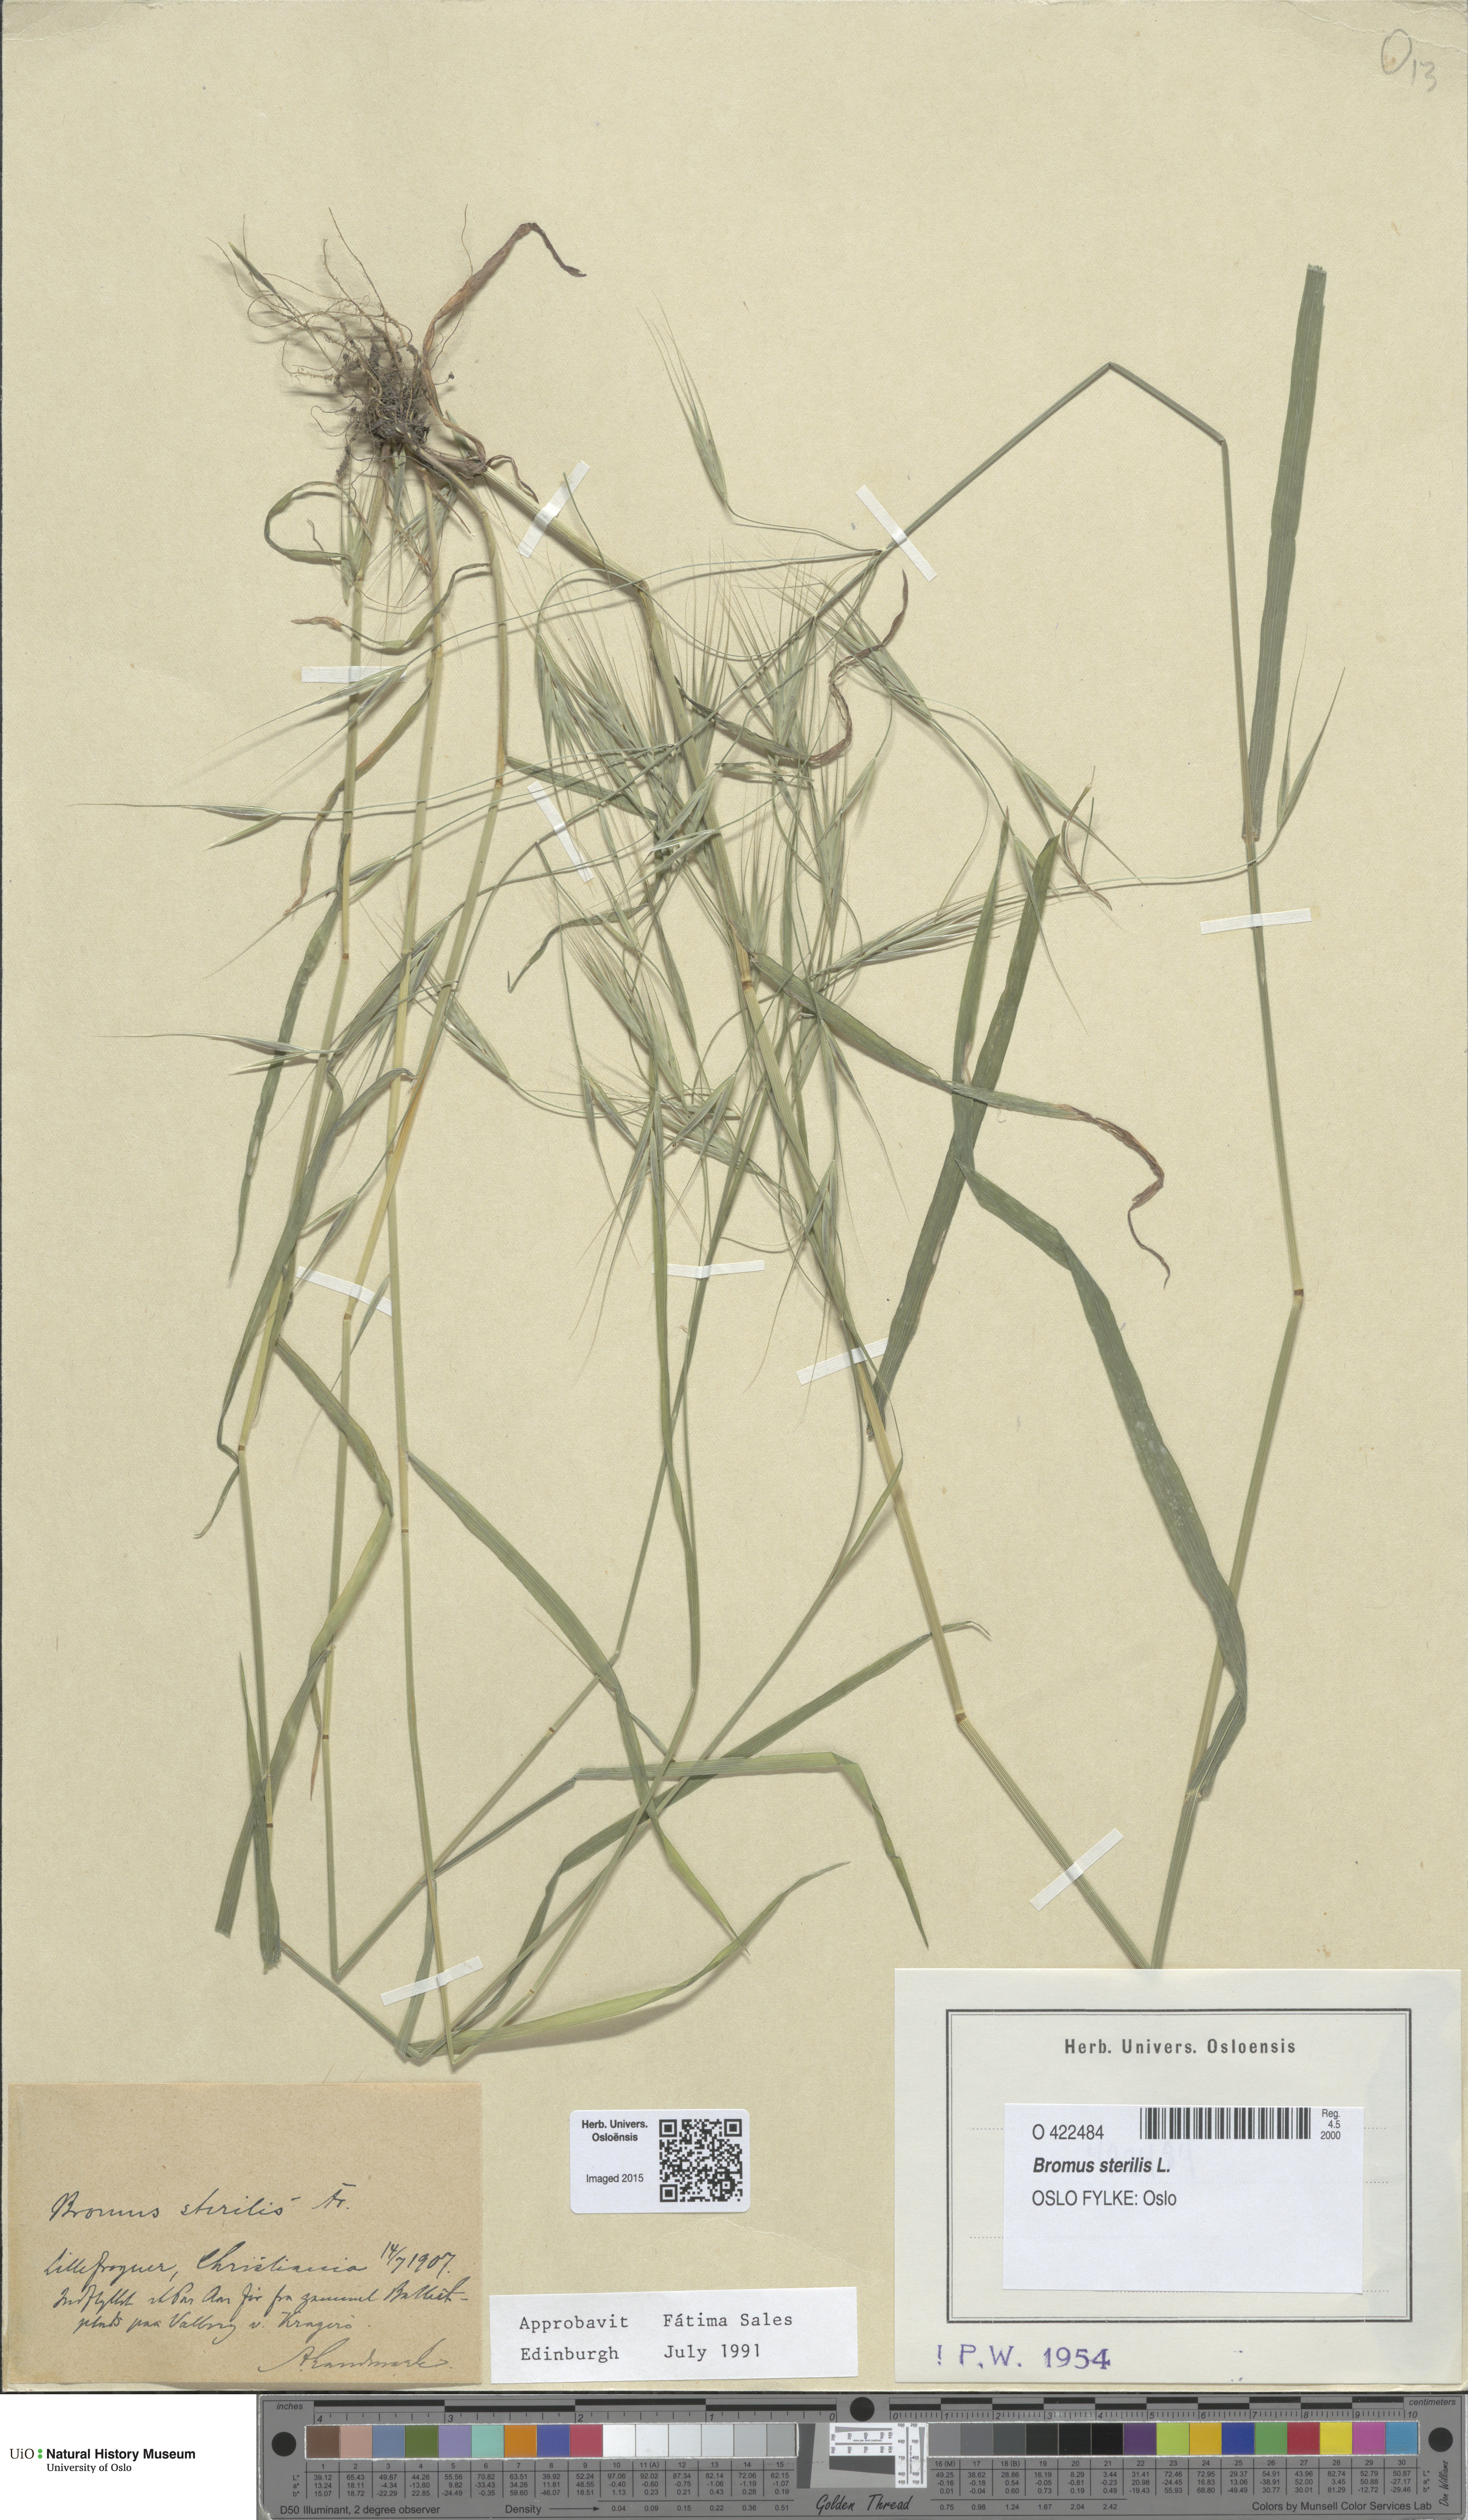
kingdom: Plantae
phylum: Tracheophyta
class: Liliopsida
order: Poales
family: Poaceae
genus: Bromus
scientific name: Bromus sterilis
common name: Poverty brome
